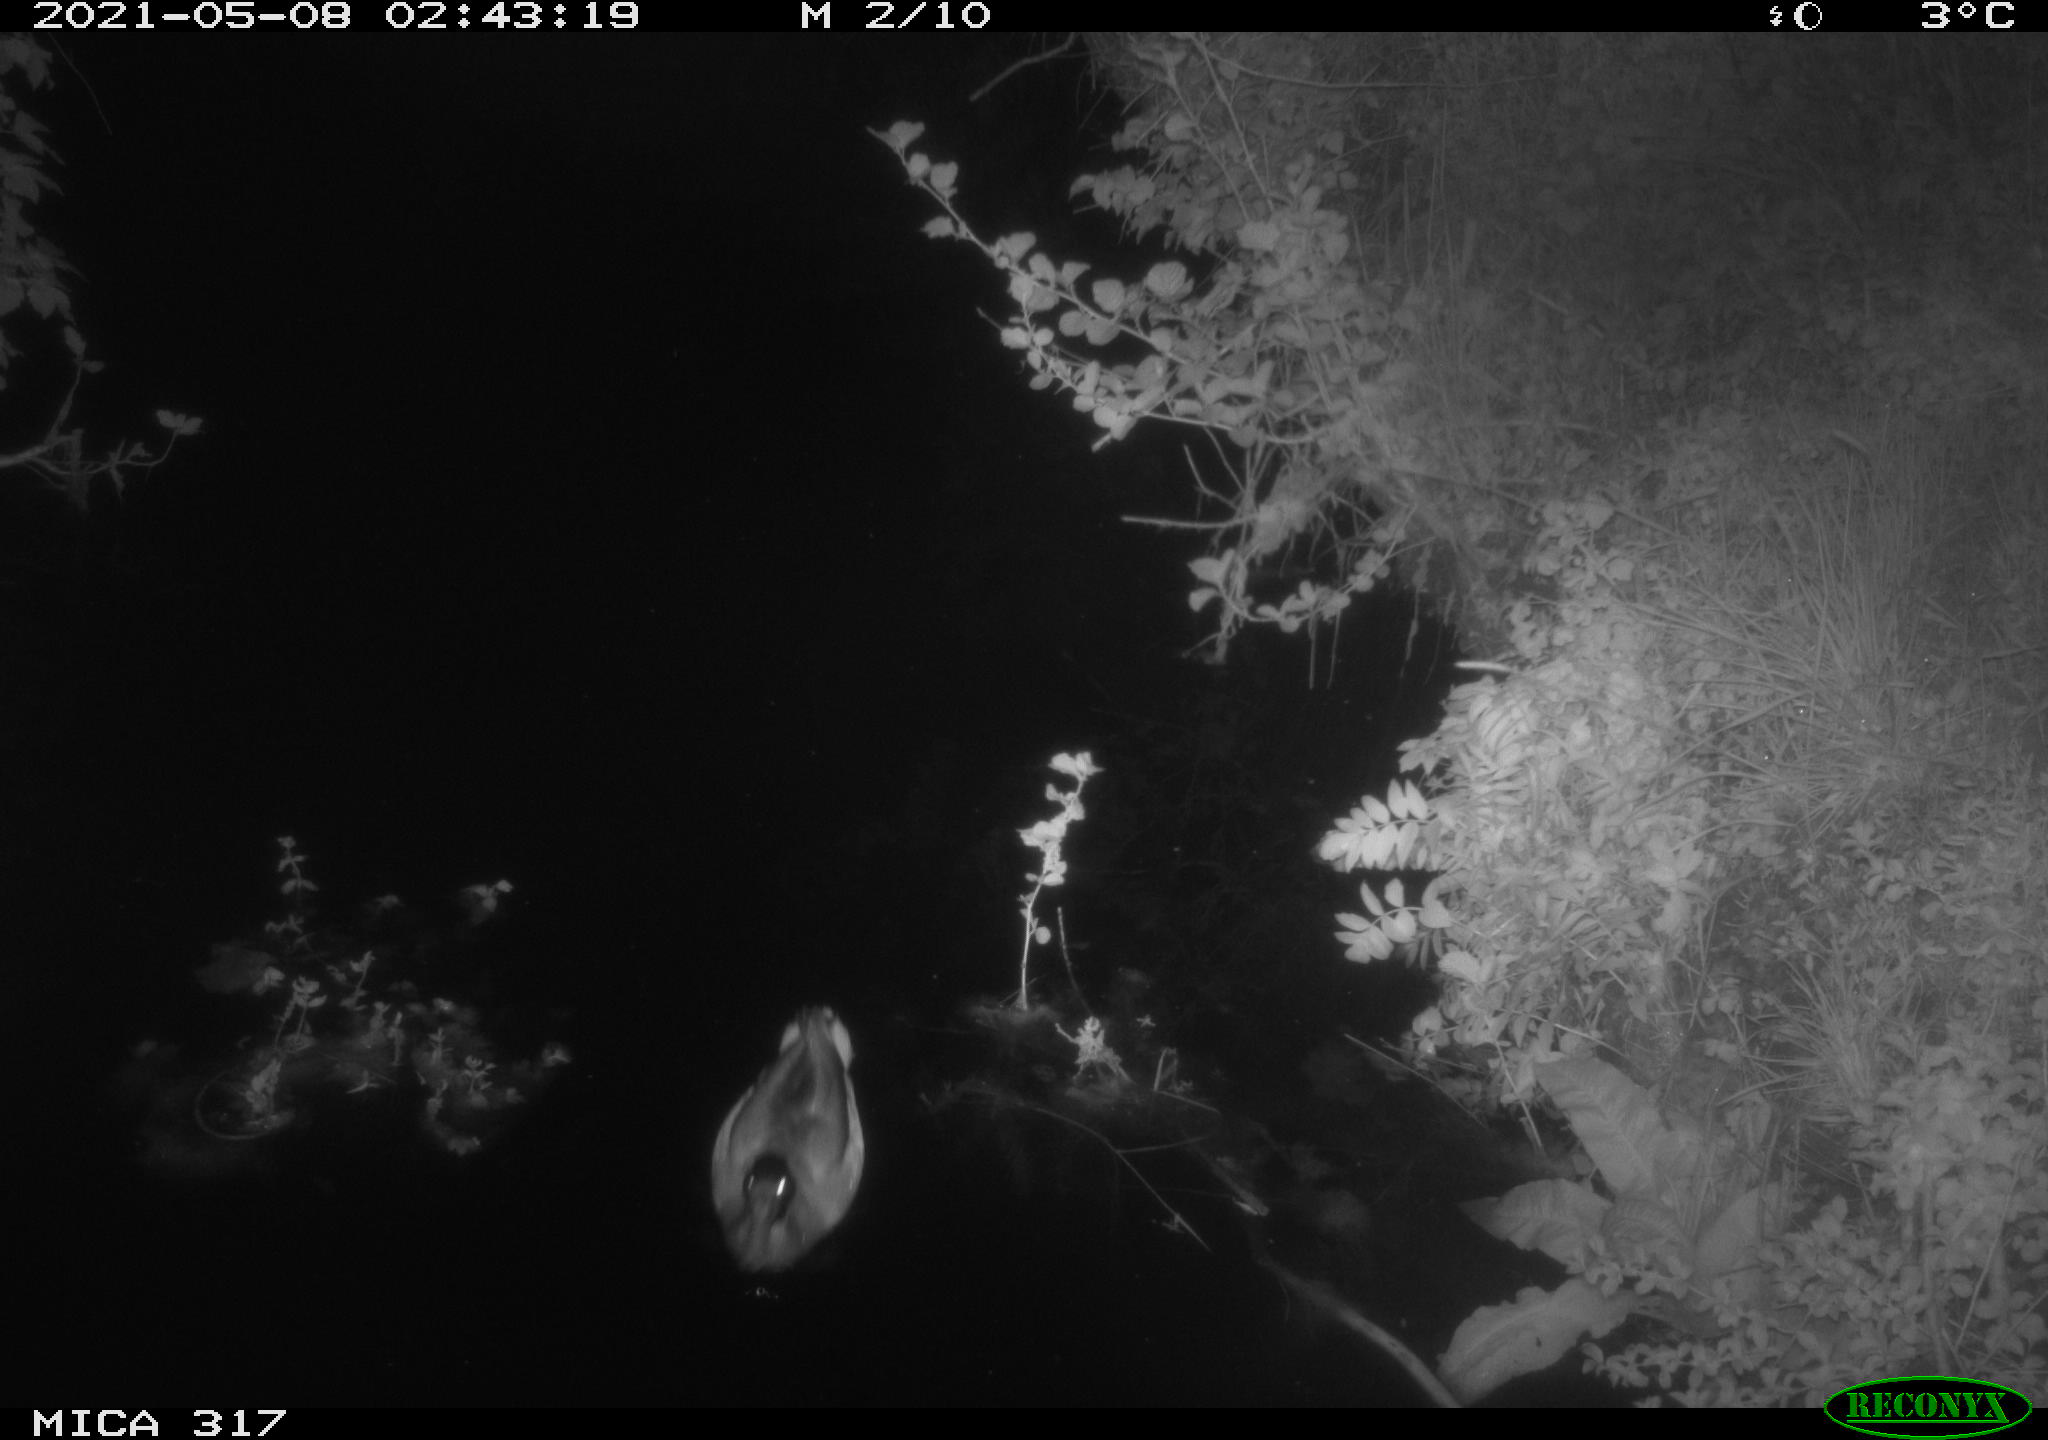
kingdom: Animalia
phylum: Chordata
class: Aves
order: Anseriformes
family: Anatidae
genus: Anas
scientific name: Anas
